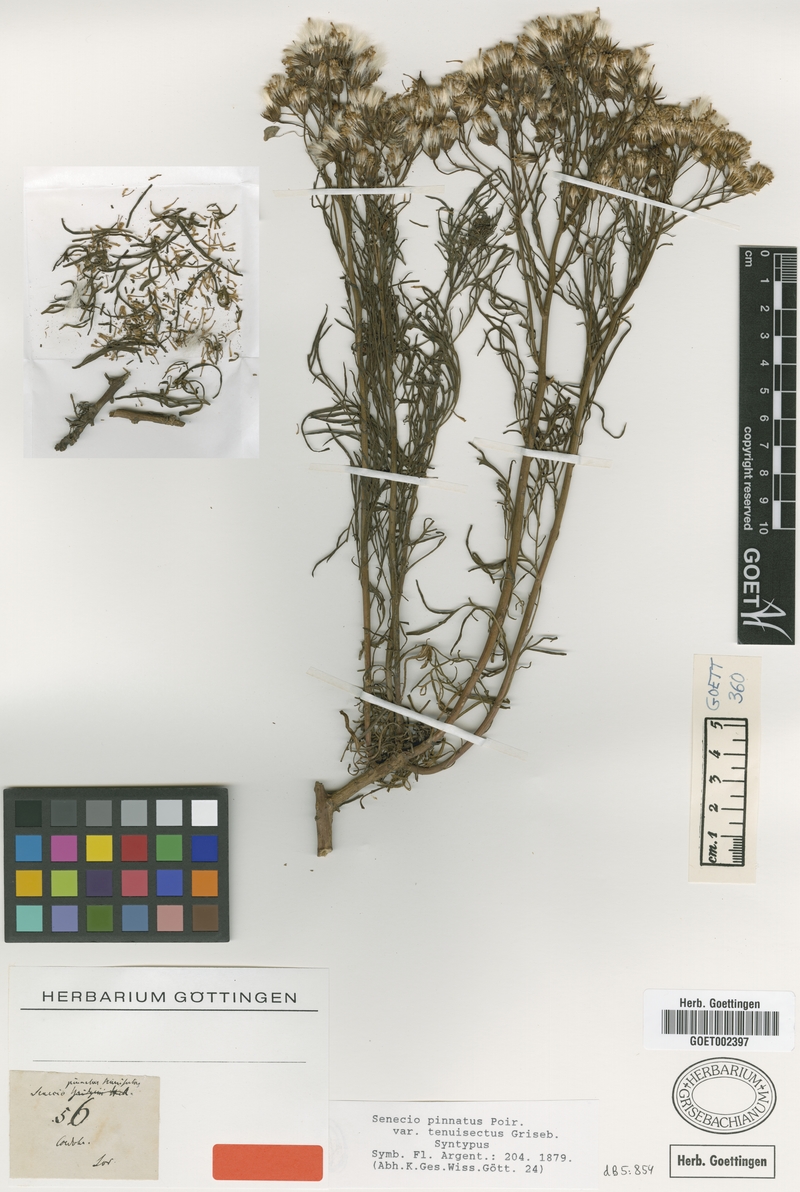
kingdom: Plantae
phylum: Tracheophyta
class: Magnoliopsida
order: Asterales
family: Asteraceae
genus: Senecio
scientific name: Senecio pinnatus
